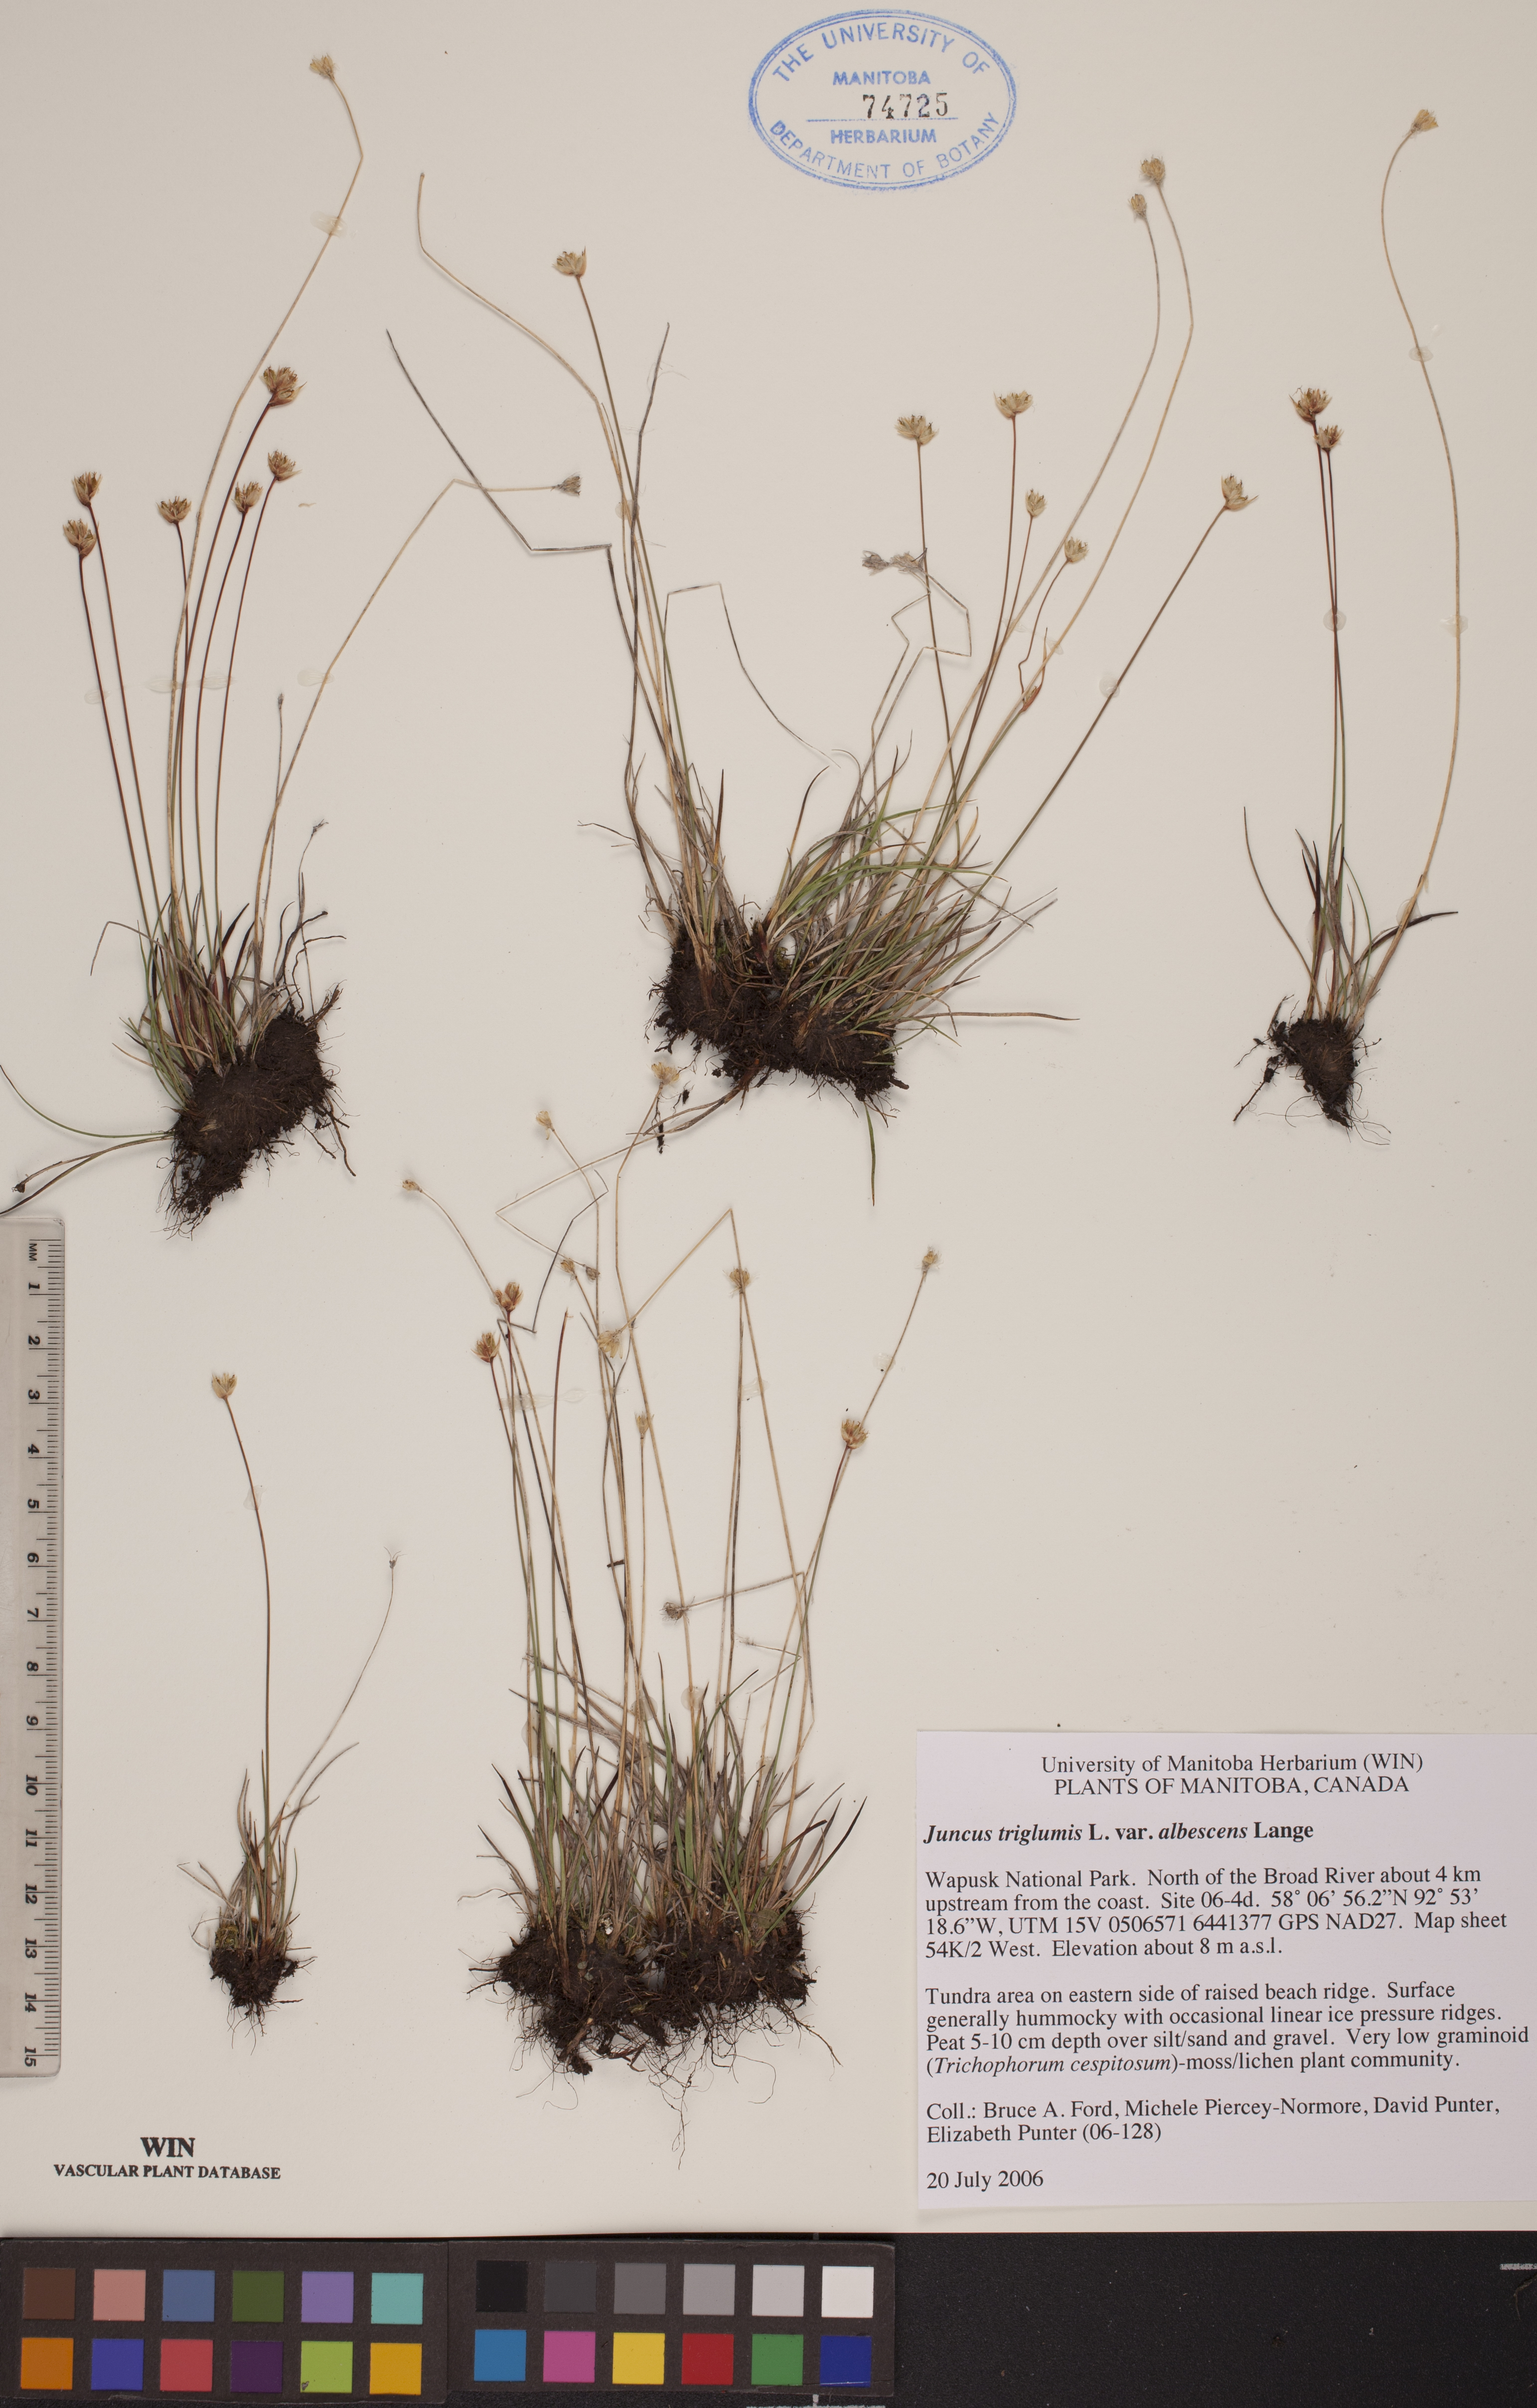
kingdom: Plantae
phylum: Tracheophyta
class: Liliopsida
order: Poales
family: Juncaceae
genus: Juncus
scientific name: Juncus albescens
